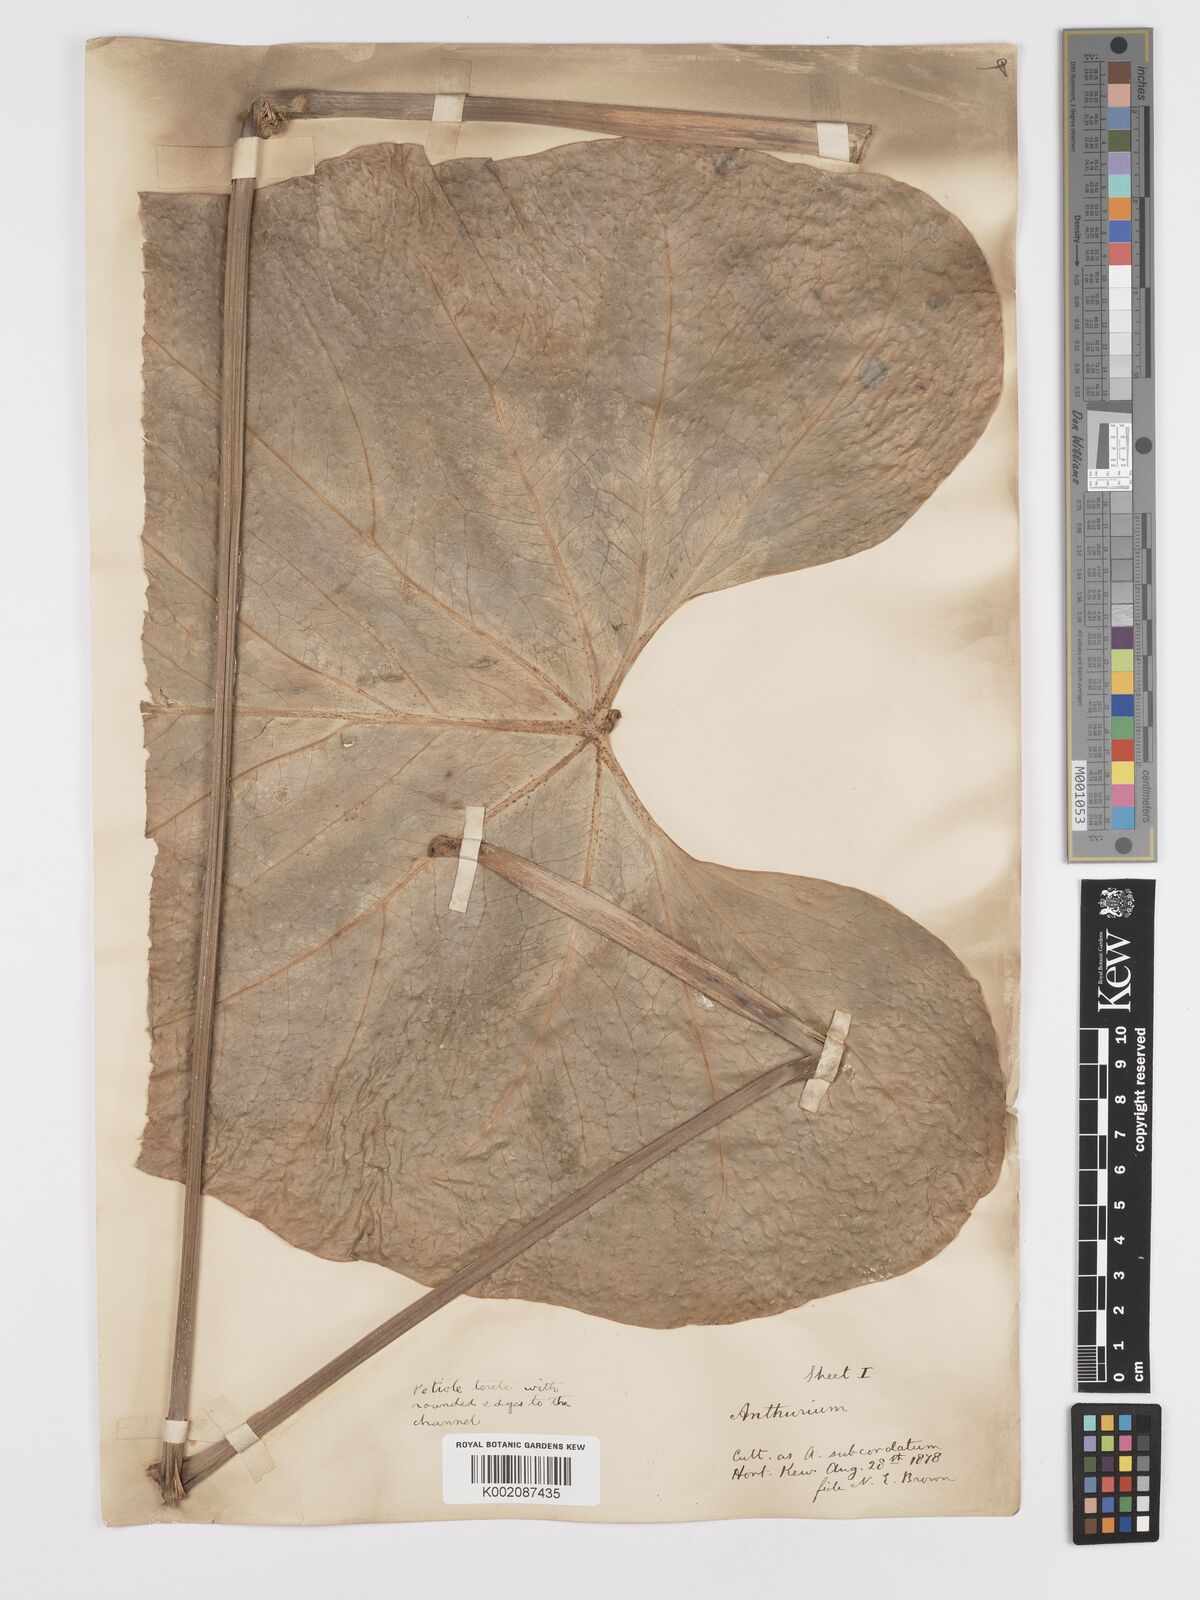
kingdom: Plantae
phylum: Tracheophyta
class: Liliopsida
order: Alismatales
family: Araceae
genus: Anthurium
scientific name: Anthurium
